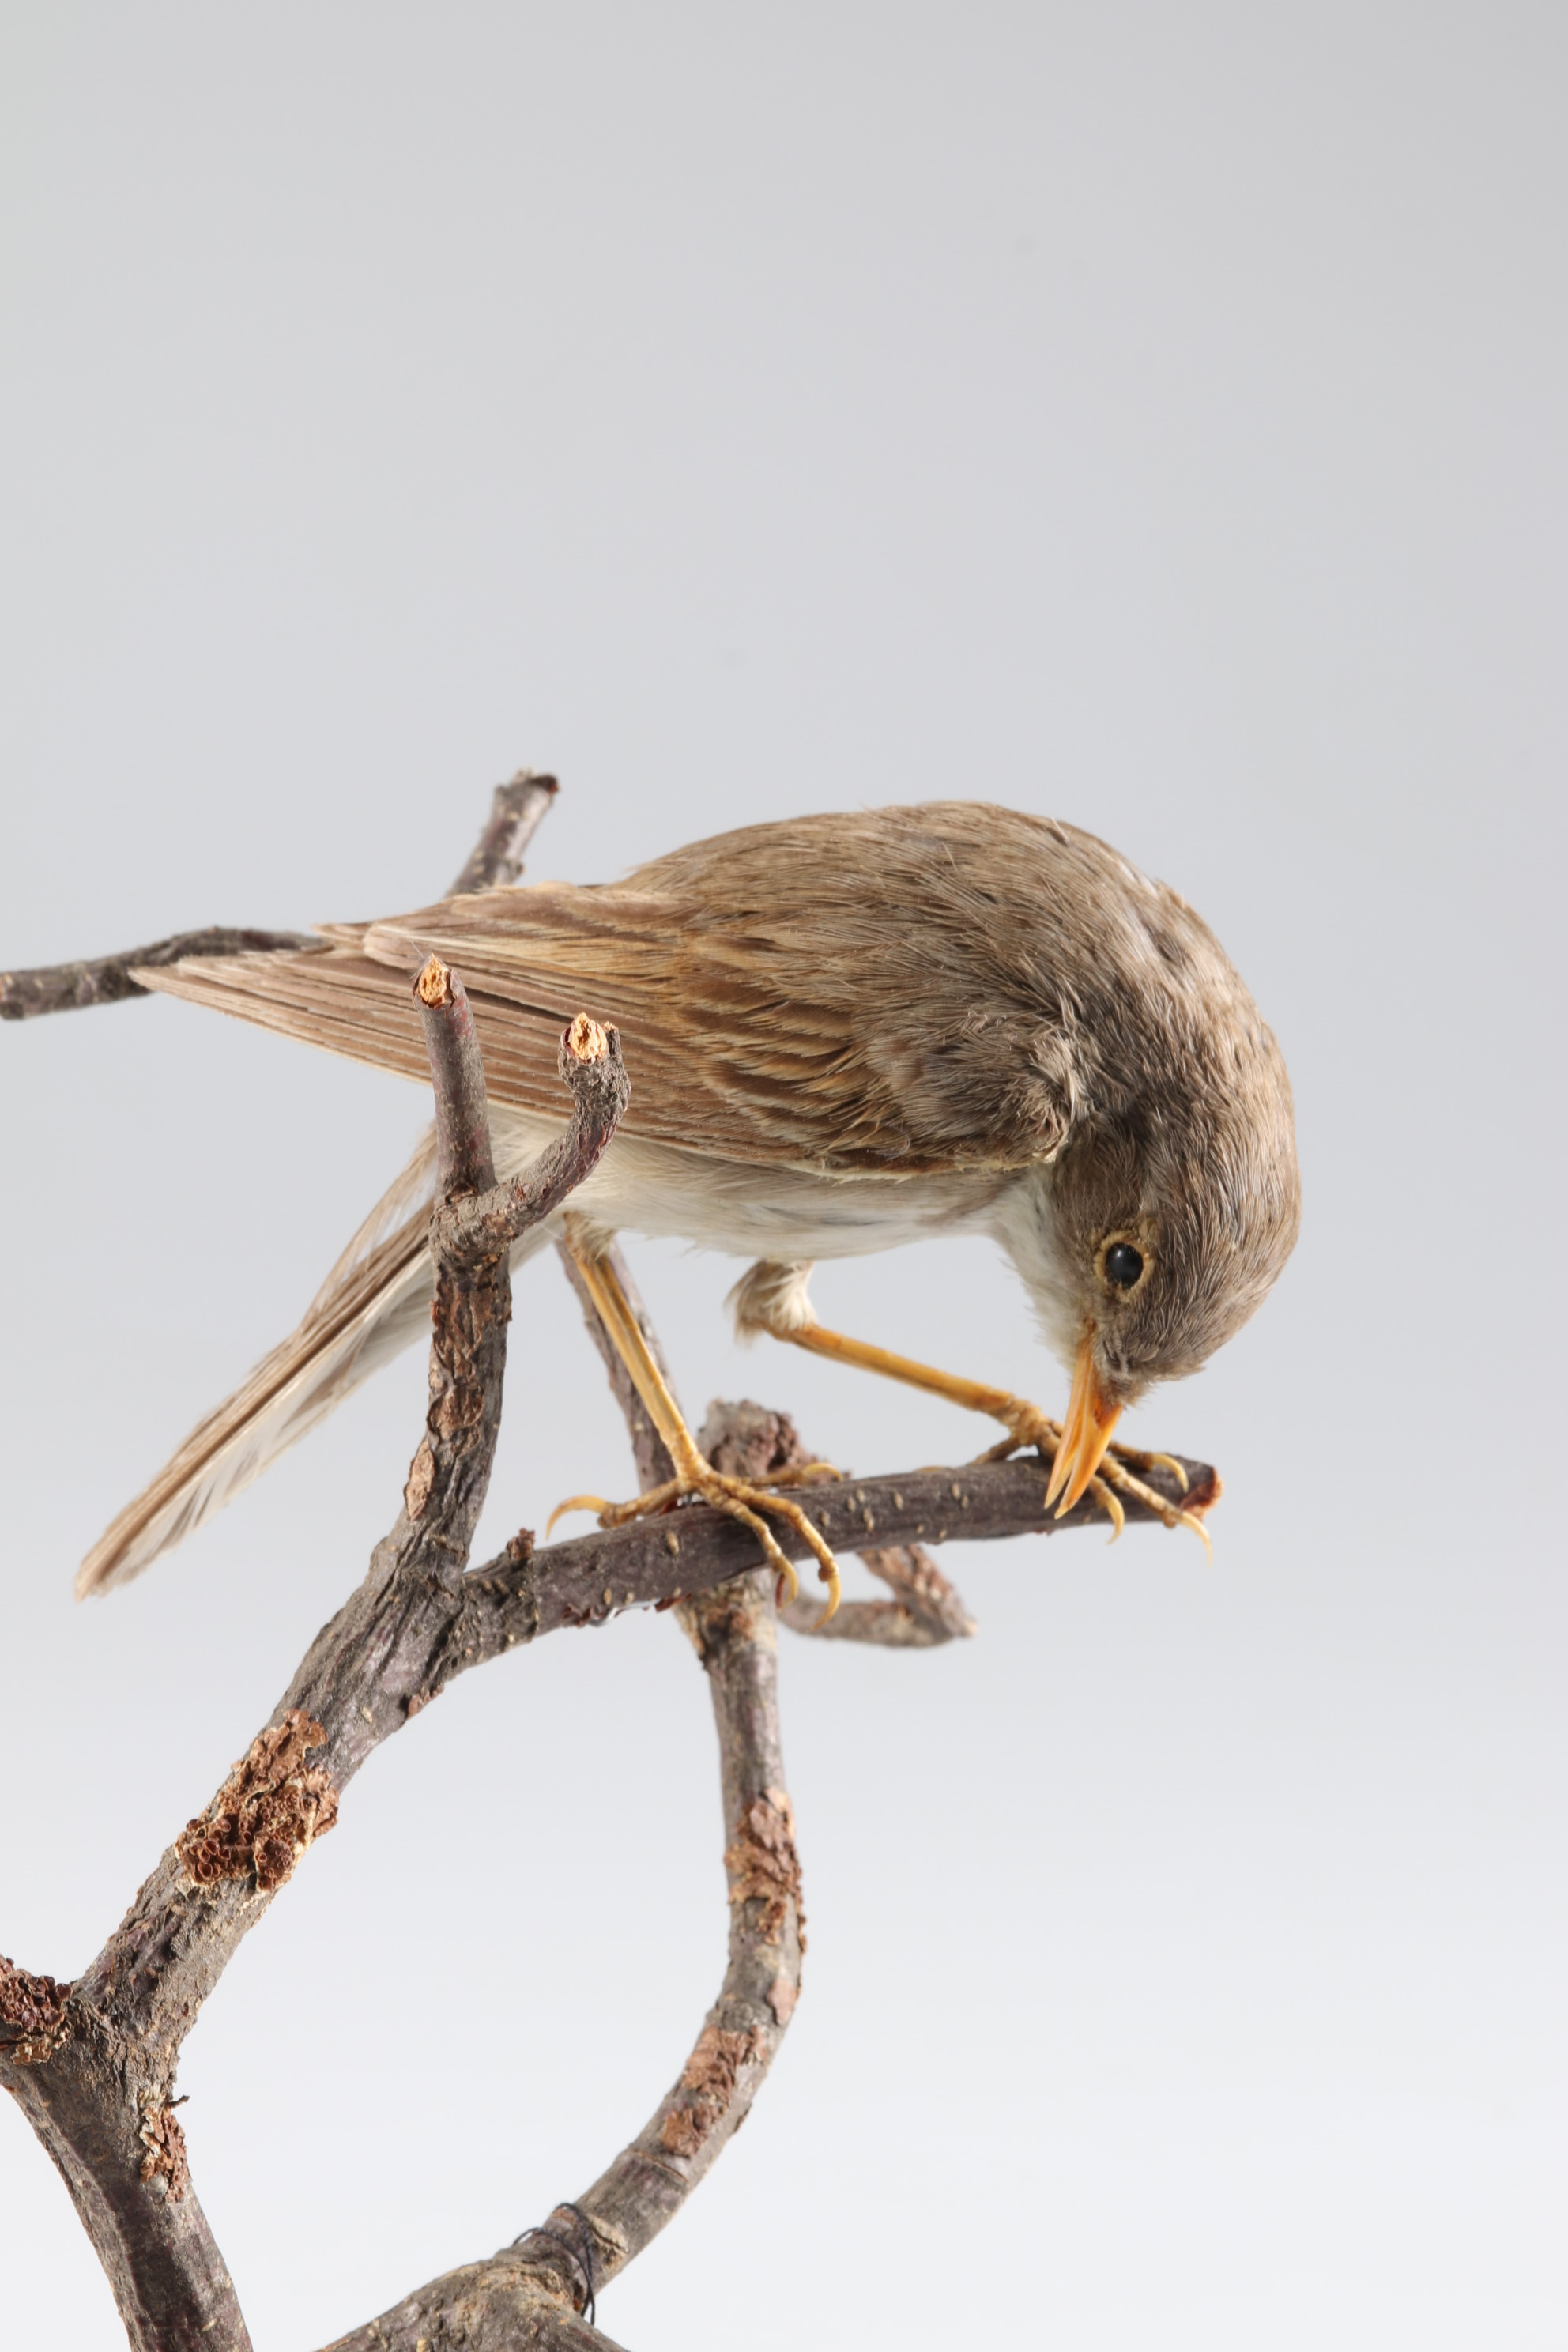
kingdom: Animalia
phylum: Chordata
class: Aves
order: Passeriformes
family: Sylviidae
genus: Sylvia
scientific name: Sylvia communis
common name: Common whitethroat
